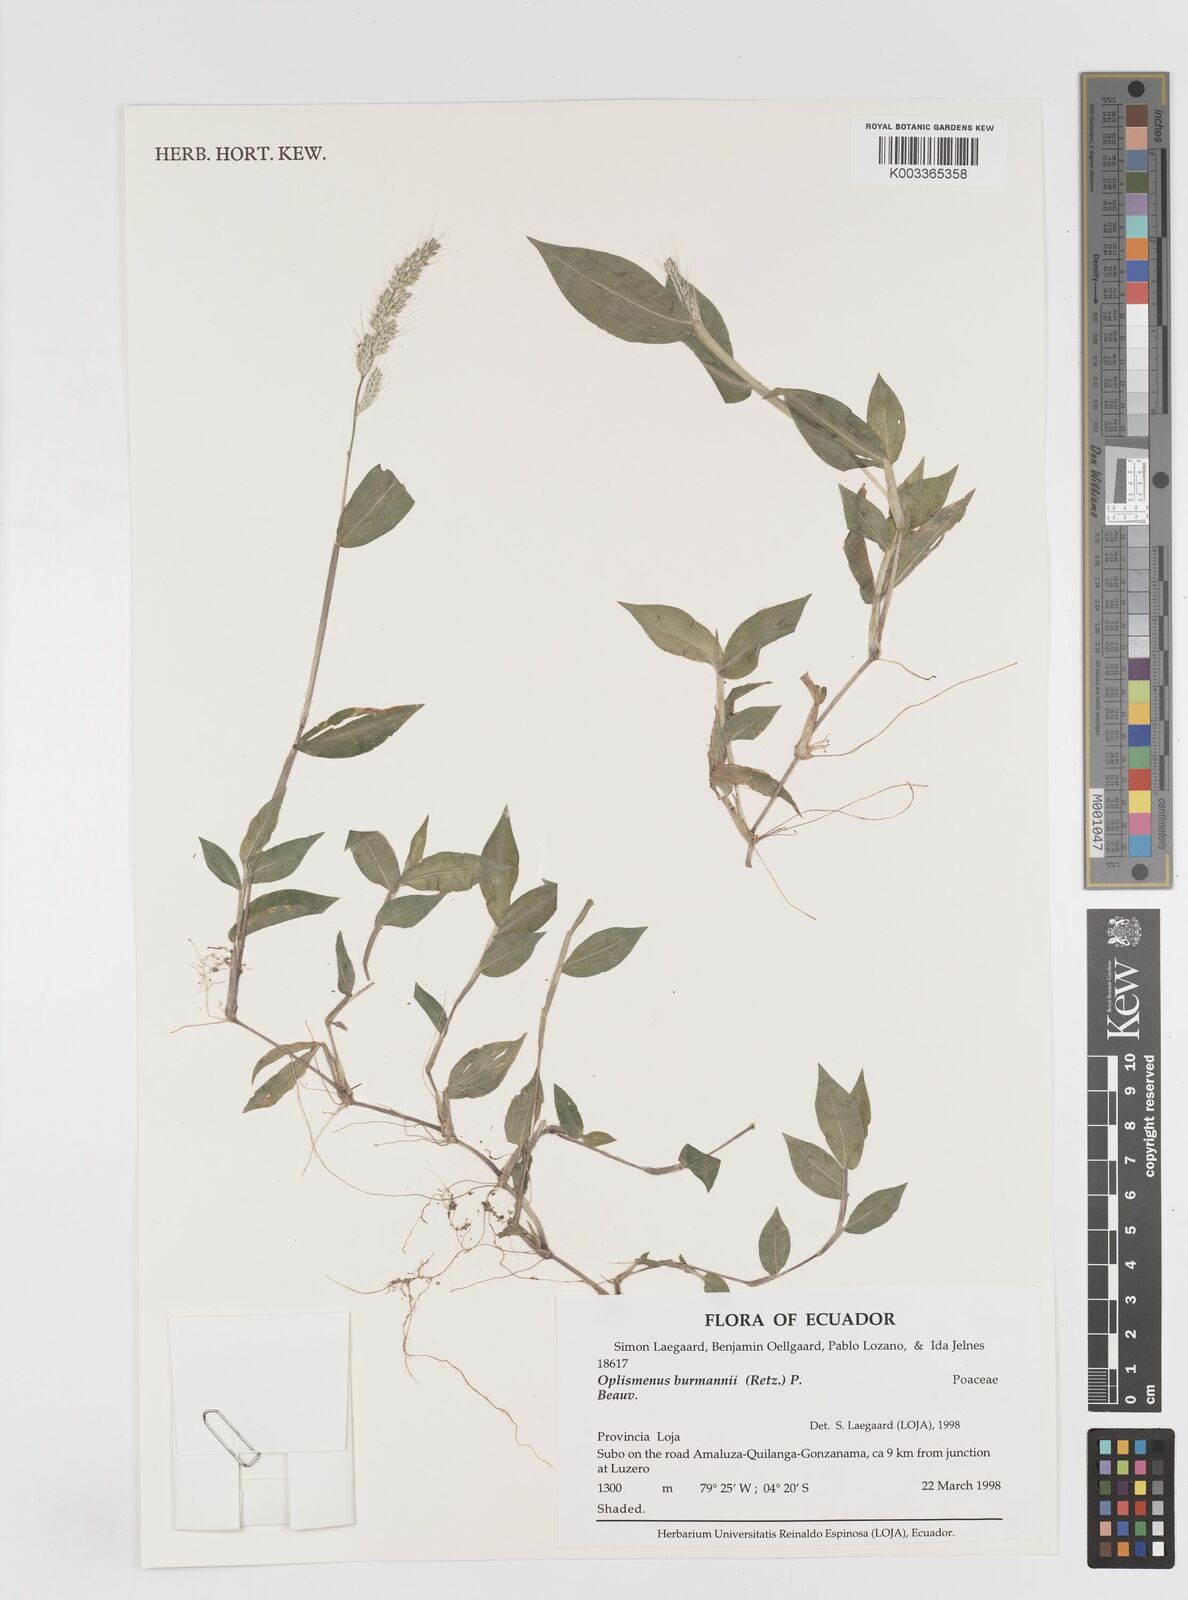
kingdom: Plantae
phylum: Tracheophyta
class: Liliopsida
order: Poales
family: Poaceae
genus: Oplismenus
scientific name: Oplismenus burmanni
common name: Burmann's basketgrass
